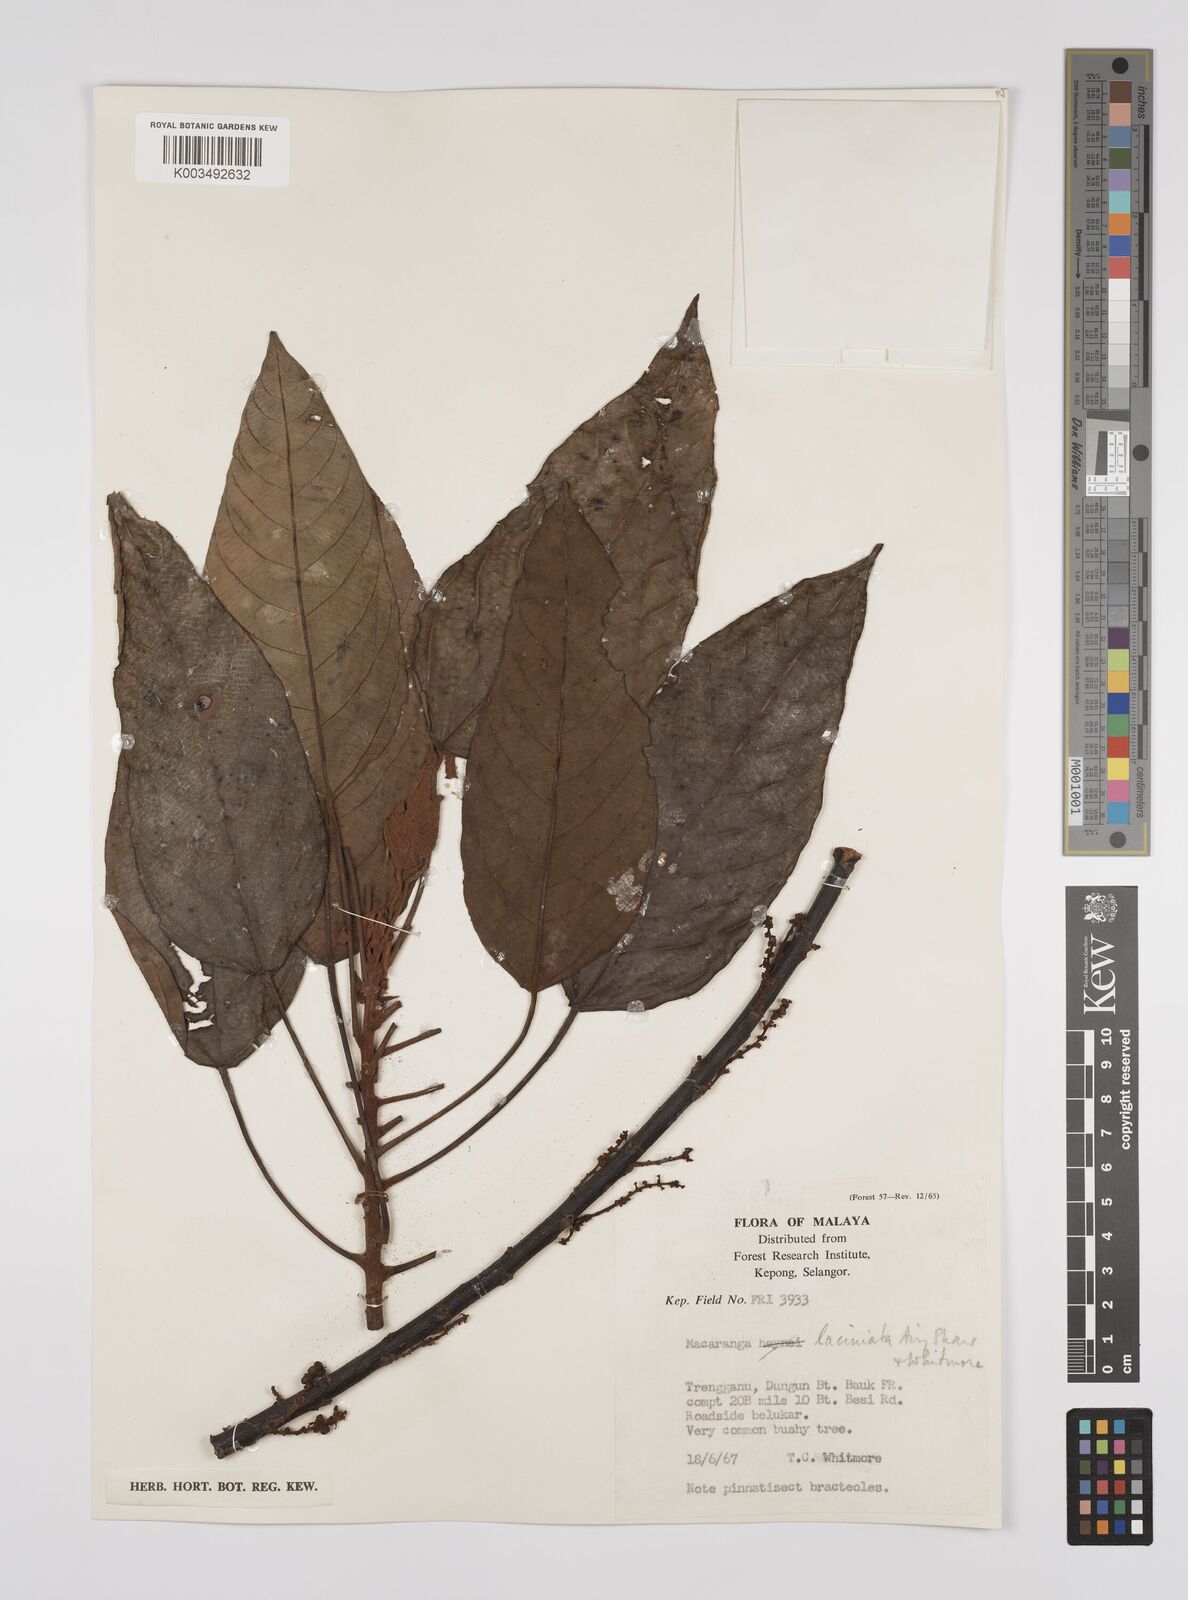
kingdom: Plantae
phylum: Tracheophyta
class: Magnoliopsida
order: Malpighiales
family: Euphorbiaceae
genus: Macaranga
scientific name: Macaranga laciniata
